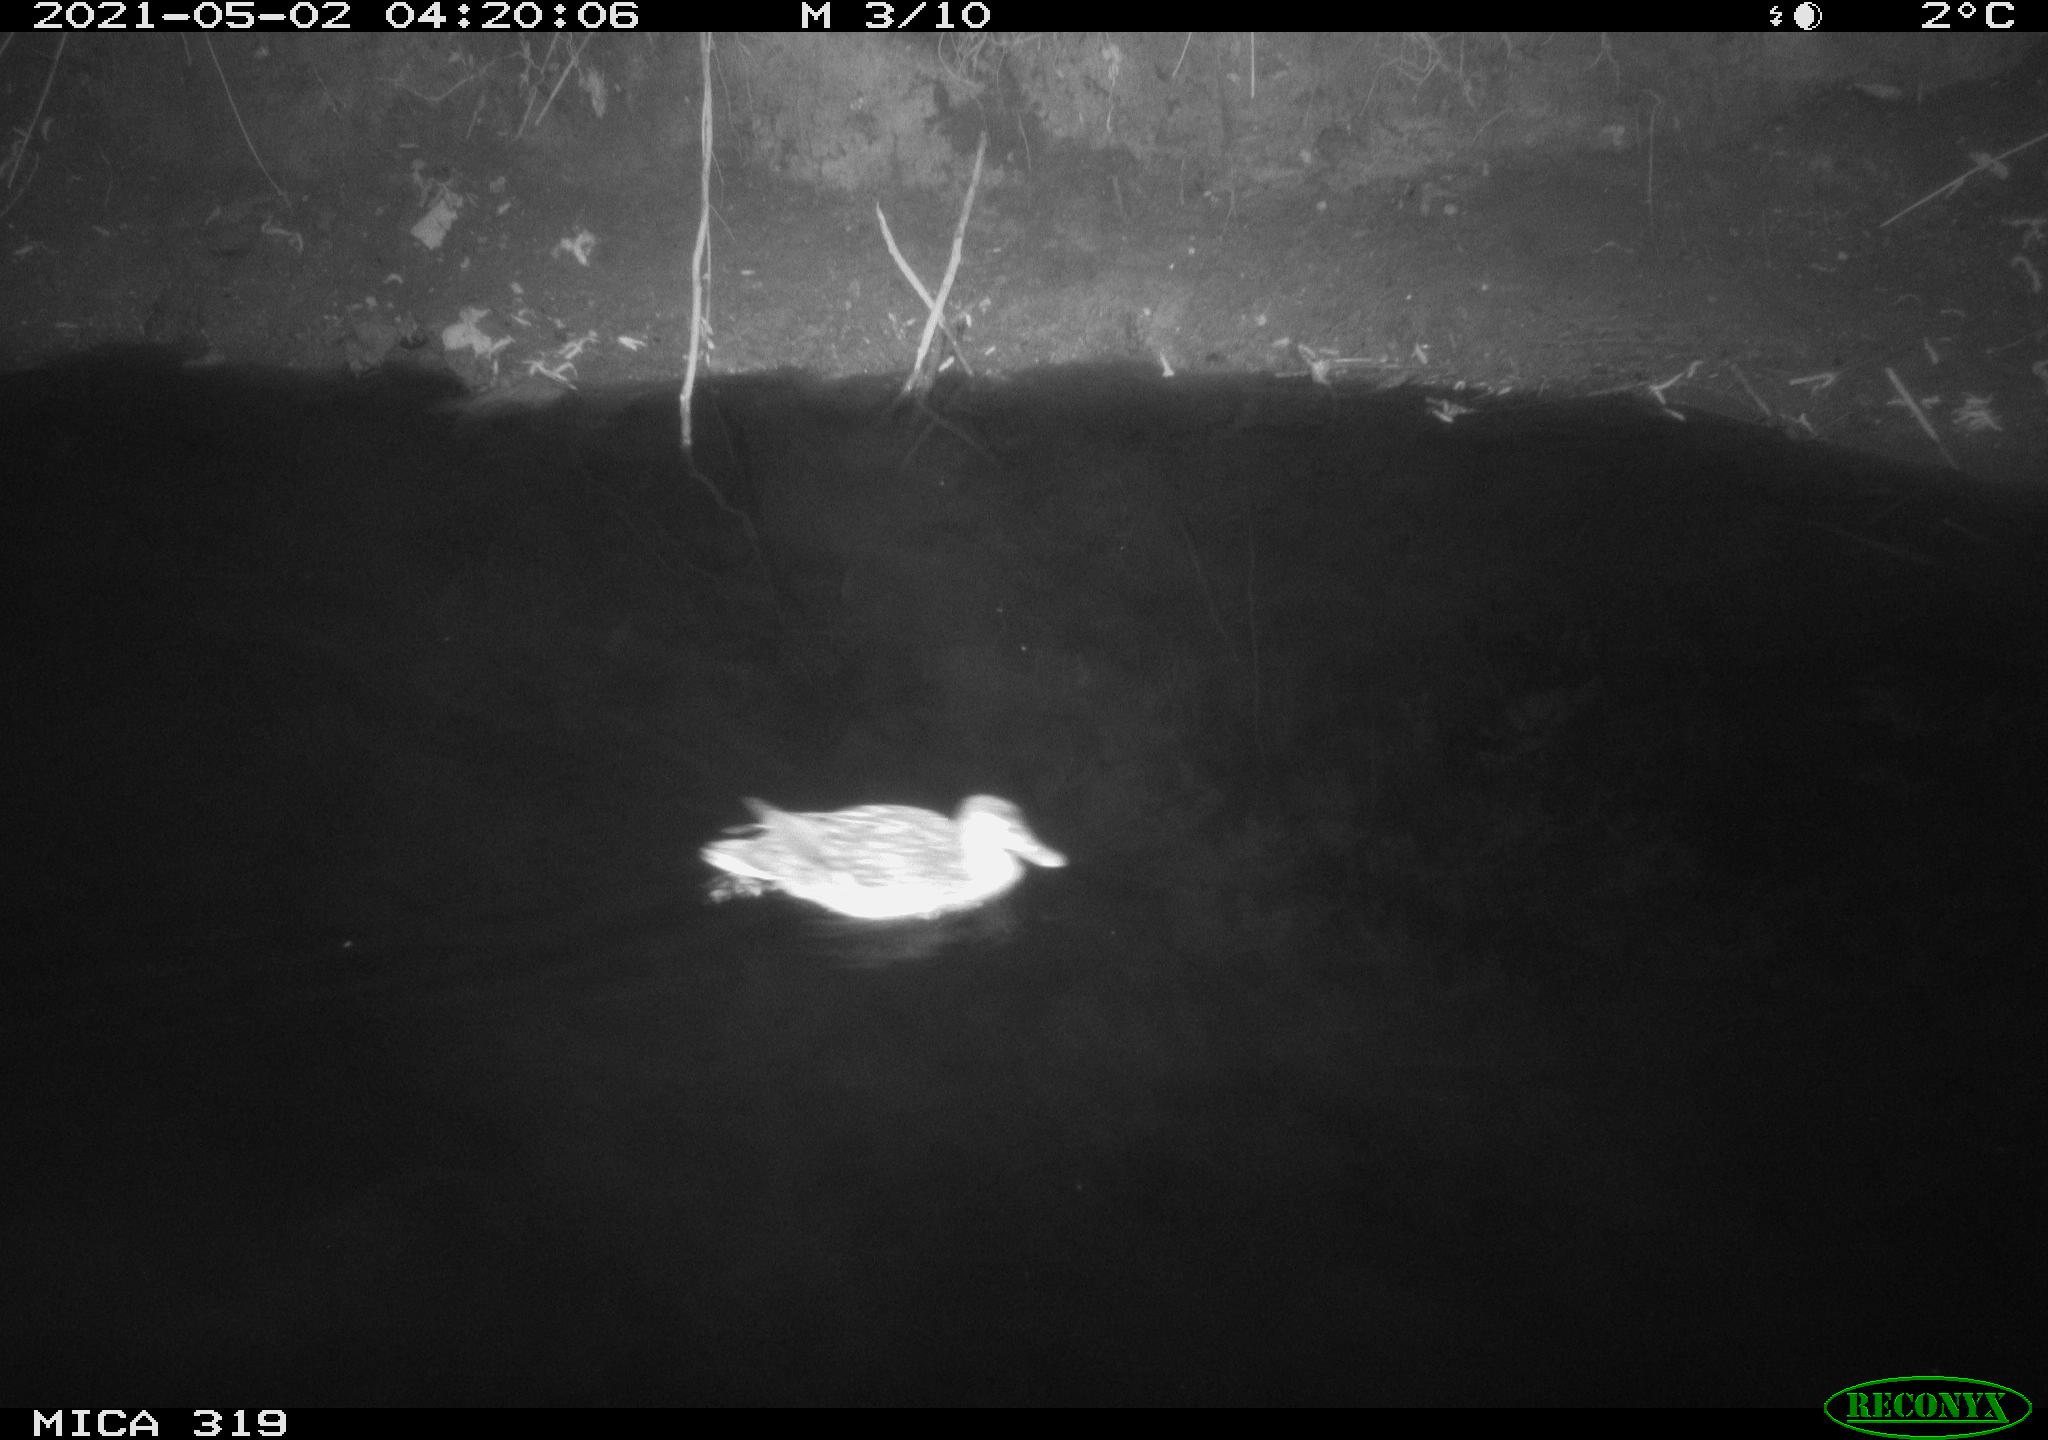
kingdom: Animalia
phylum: Chordata
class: Aves
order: Anseriformes
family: Anatidae
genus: Anas
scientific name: Anas platyrhynchos
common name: Mallard
